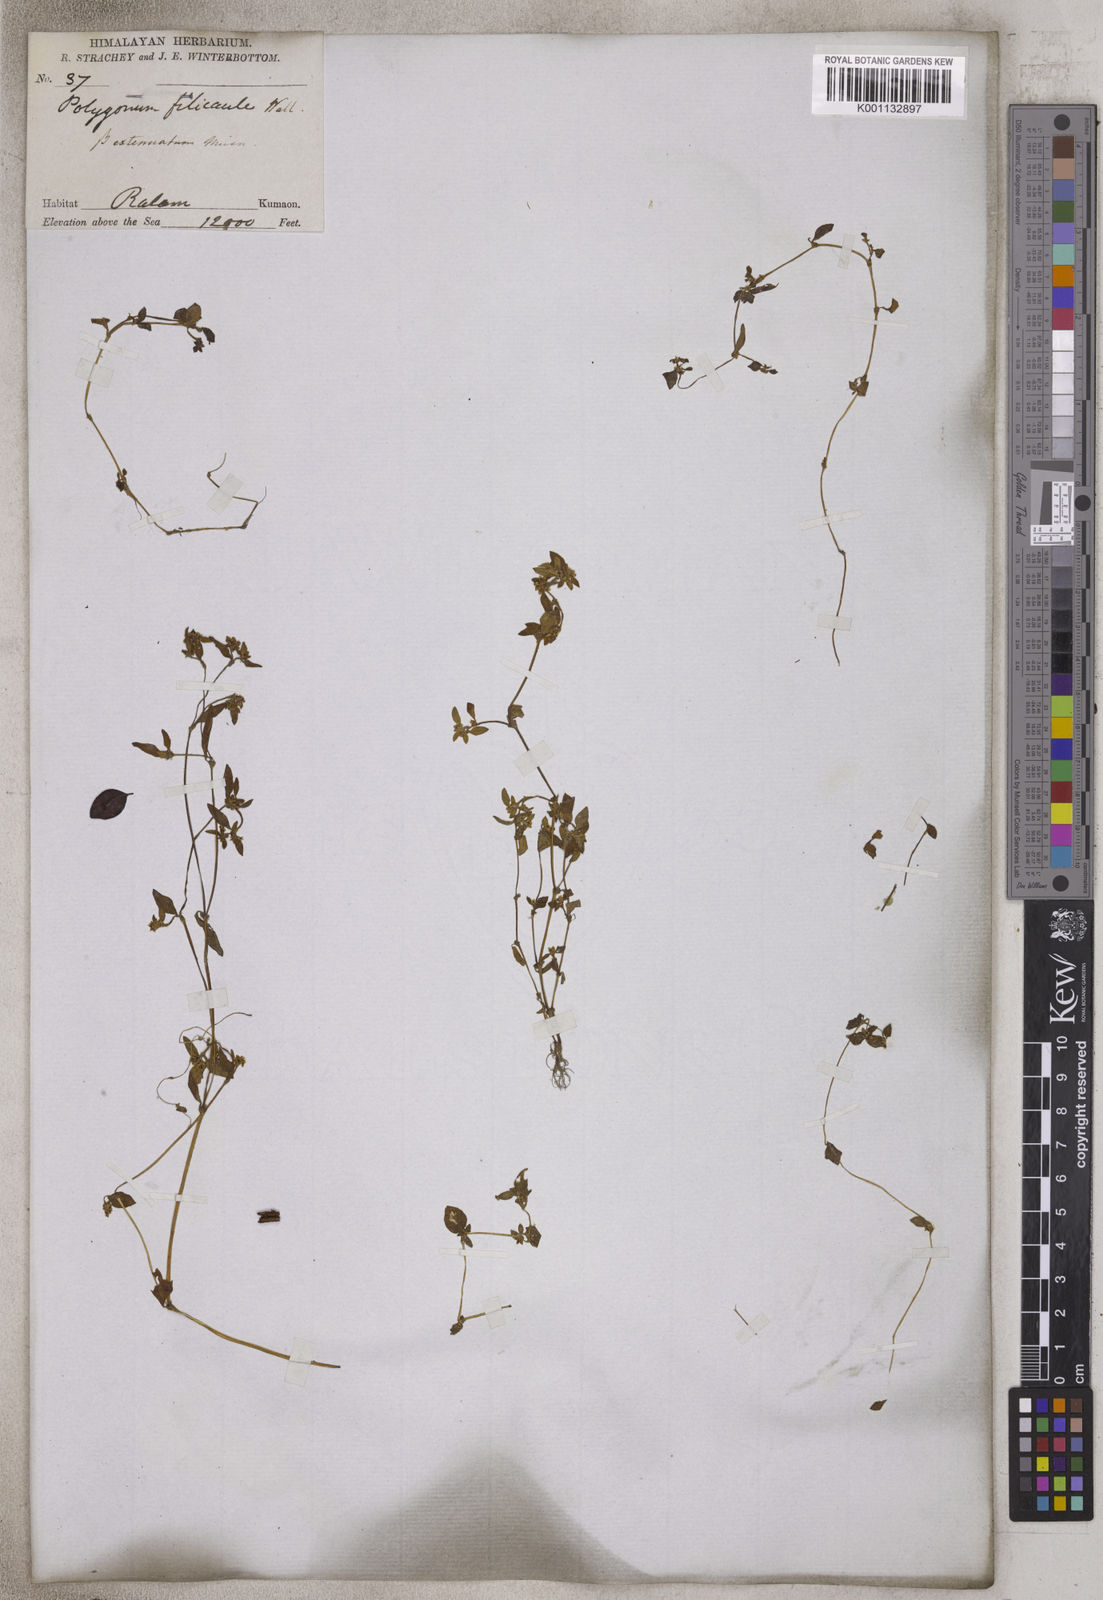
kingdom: Plantae
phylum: Tracheophyta
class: Magnoliopsida
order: Caryophyllales
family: Polygonaceae
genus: Koenigia
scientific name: Koenigia filicaulis
